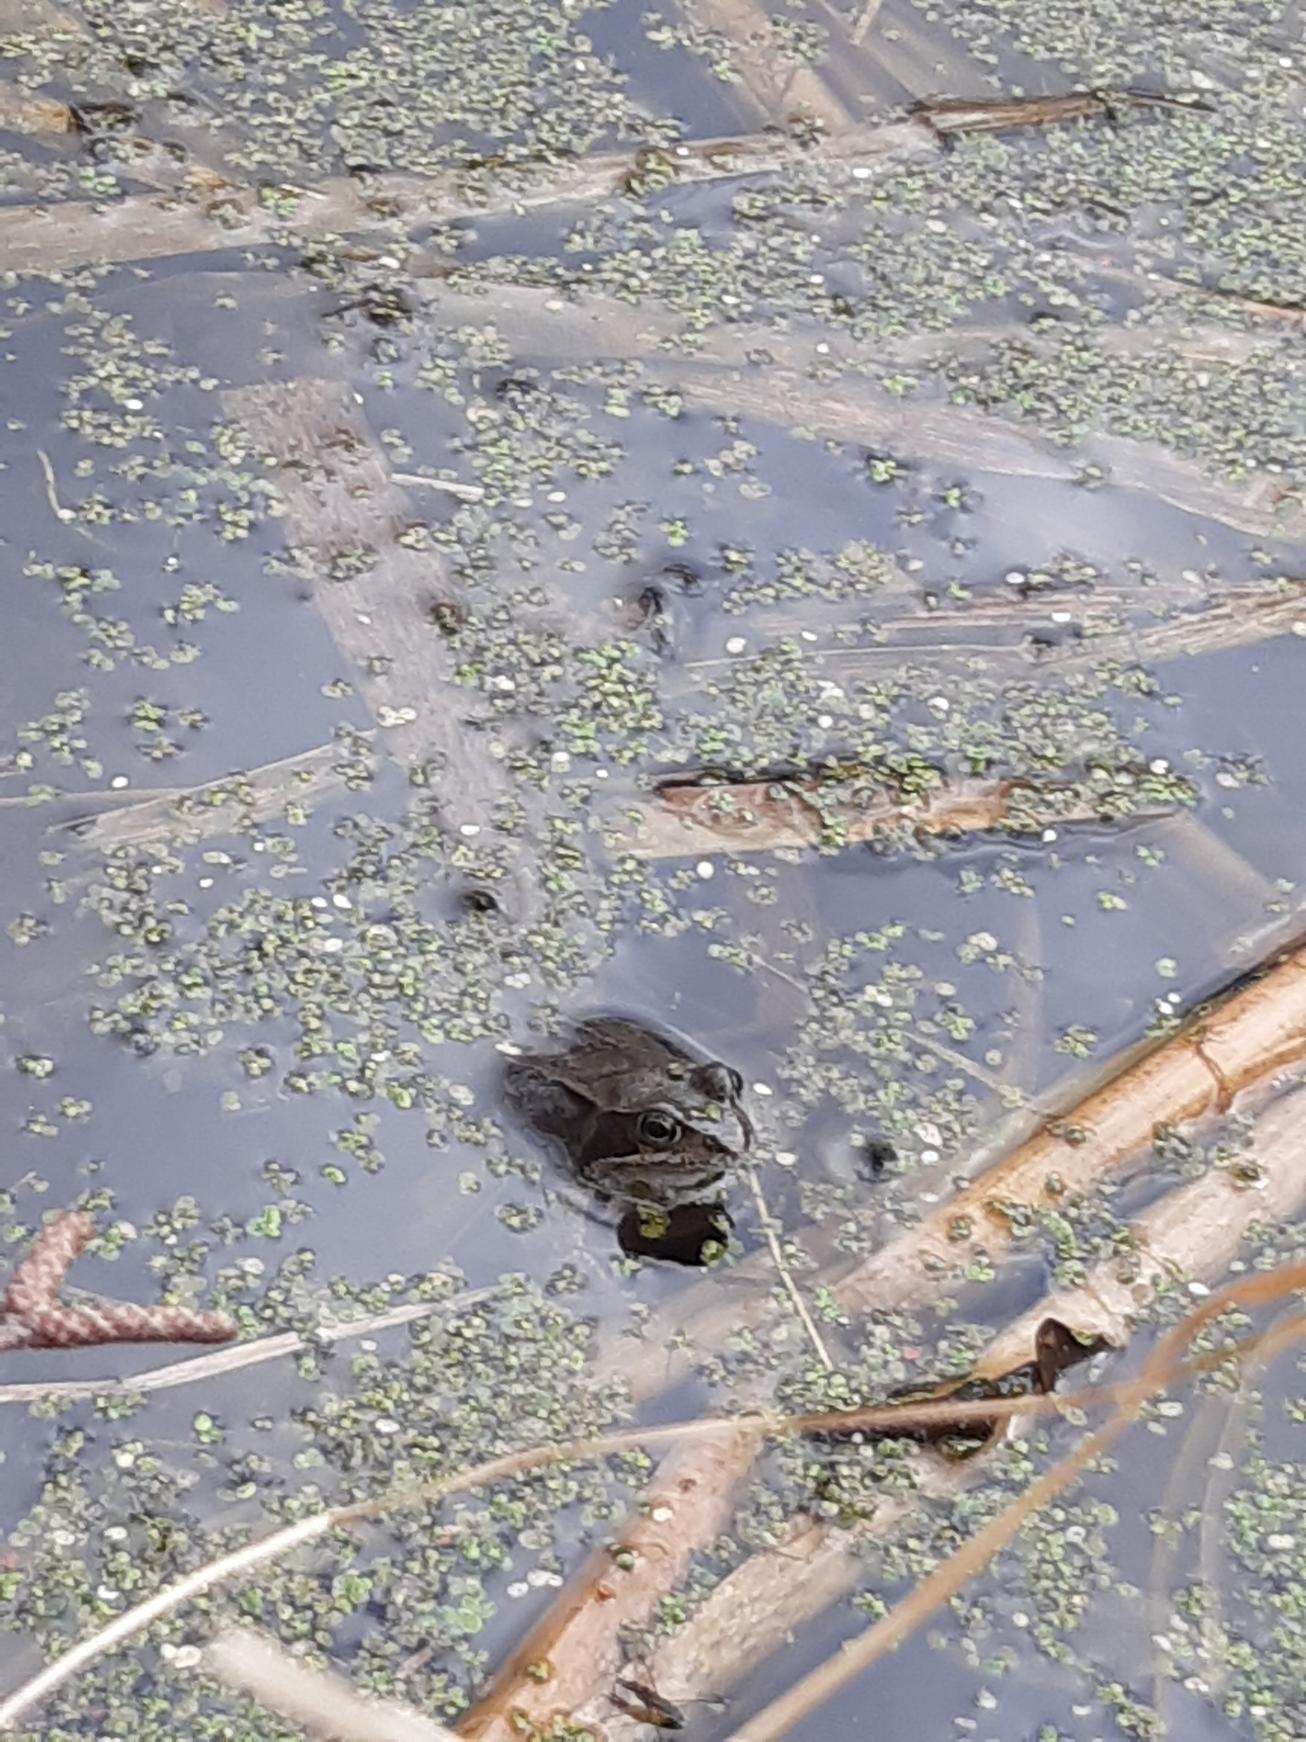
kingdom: Animalia
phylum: Chordata
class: Amphibia
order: Anura
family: Ranidae
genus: Rana
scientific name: Rana temporaria
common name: Butsnudet frø
